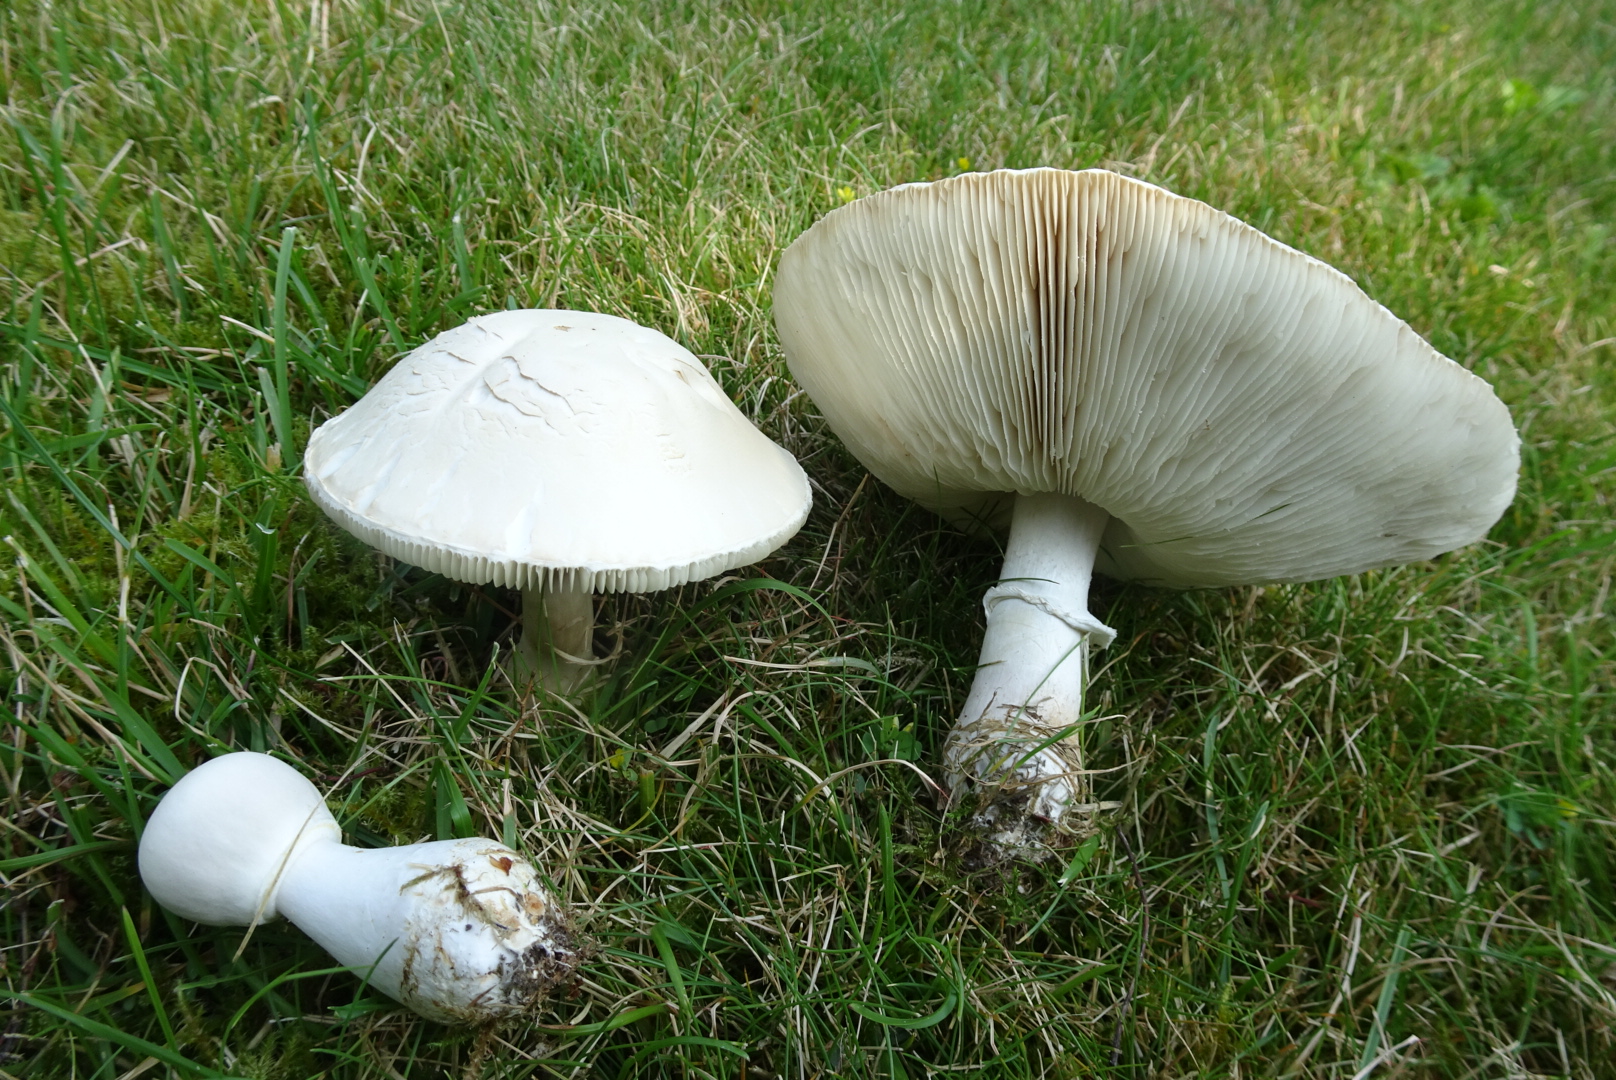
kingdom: Fungi
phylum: Basidiomycota
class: Agaricomycetes
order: Agaricales
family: Agaricaceae
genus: Leucoagaricus
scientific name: Leucoagaricus leucothites
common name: rosabladet silkehat
